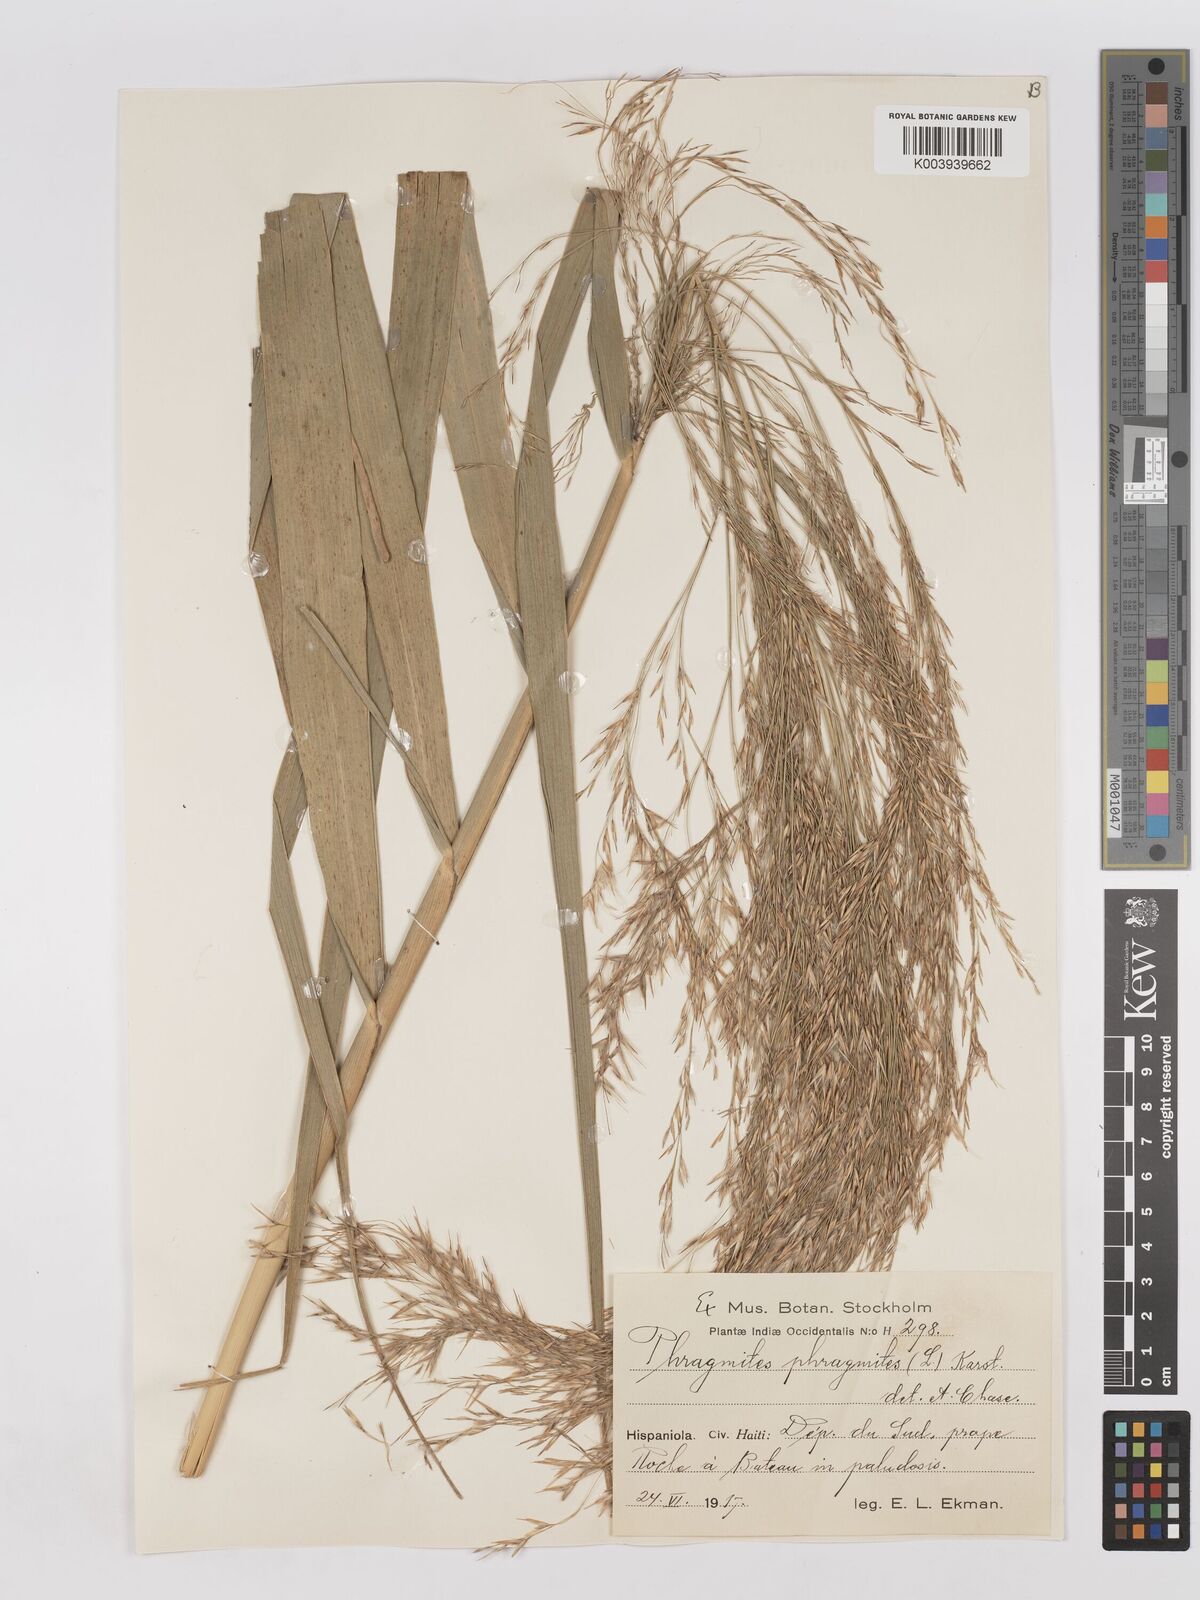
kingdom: Plantae
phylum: Tracheophyta
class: Liliopsida
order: Poales
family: Poaceae
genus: Phragmites
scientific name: Phragmites australis
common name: Common reed
